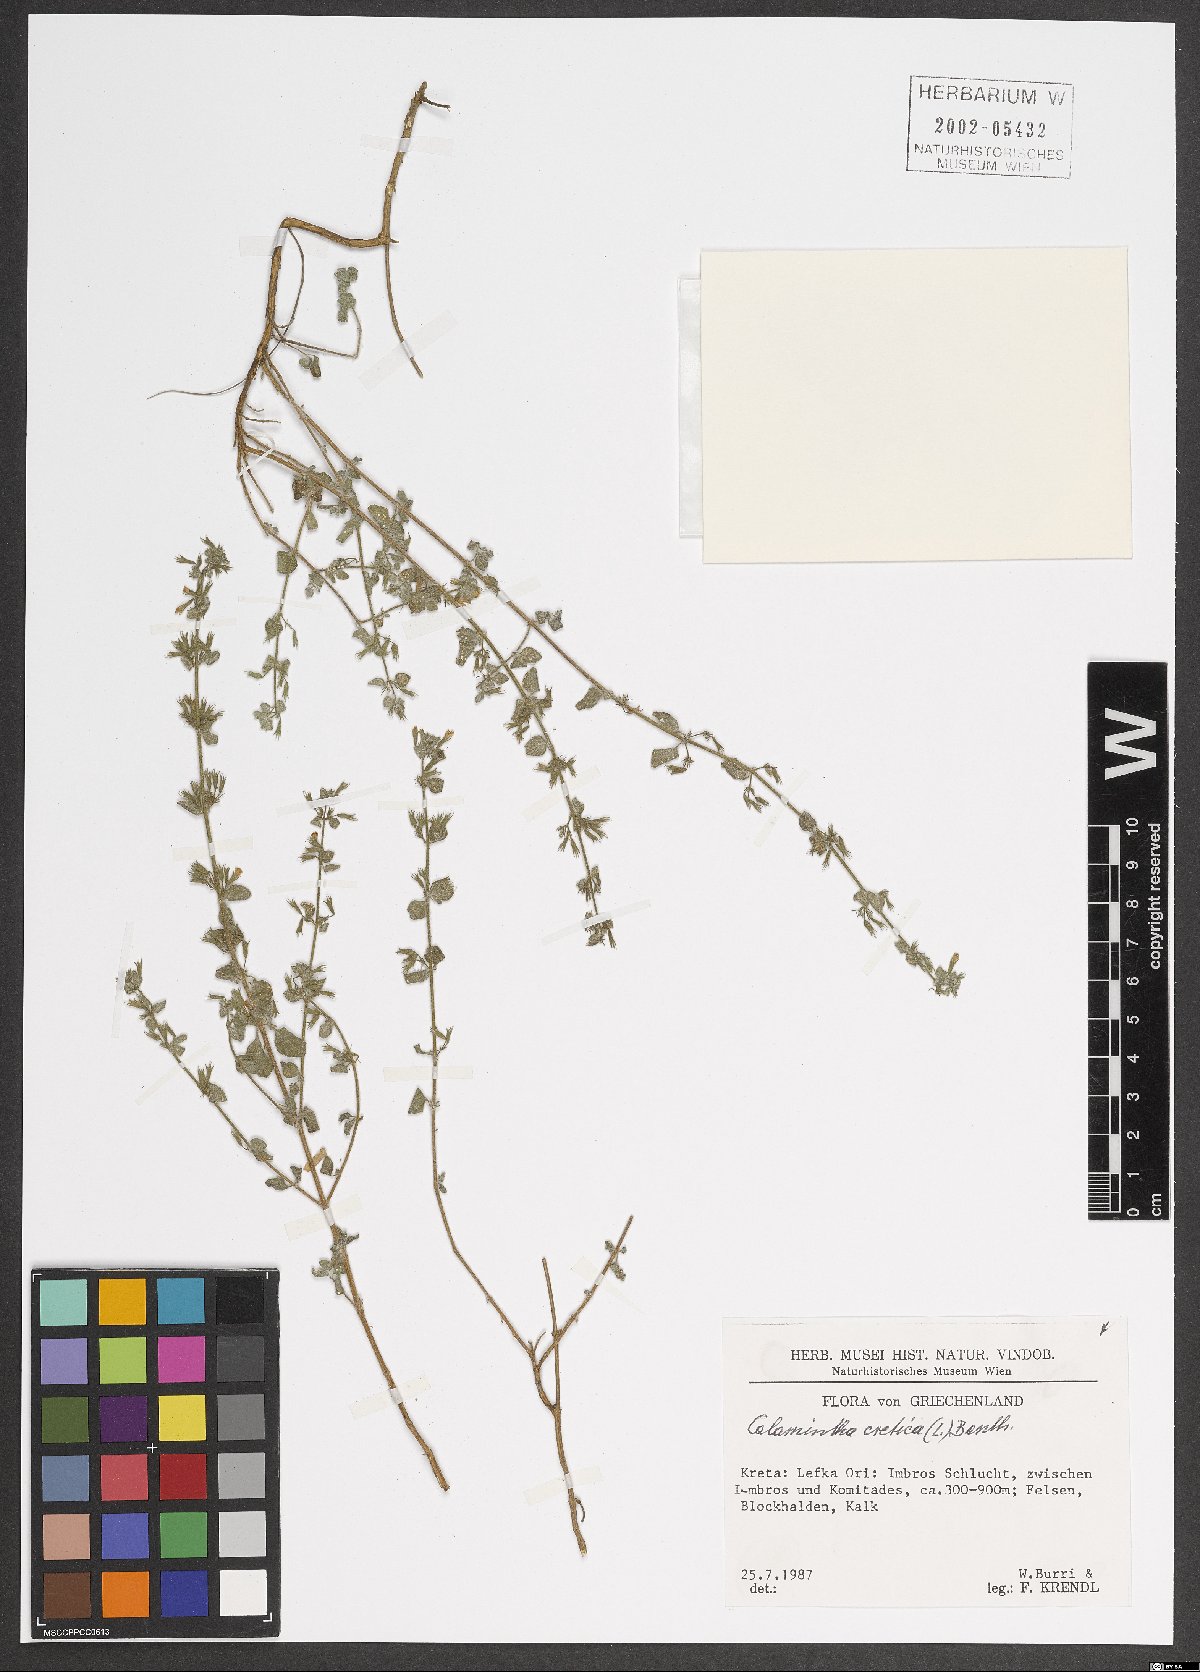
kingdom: Plantae
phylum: Tracheophyta
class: Magnoliopsida
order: Lamiales
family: Lamiaceae
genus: Clinopodium
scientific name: Clinopodium creticum
